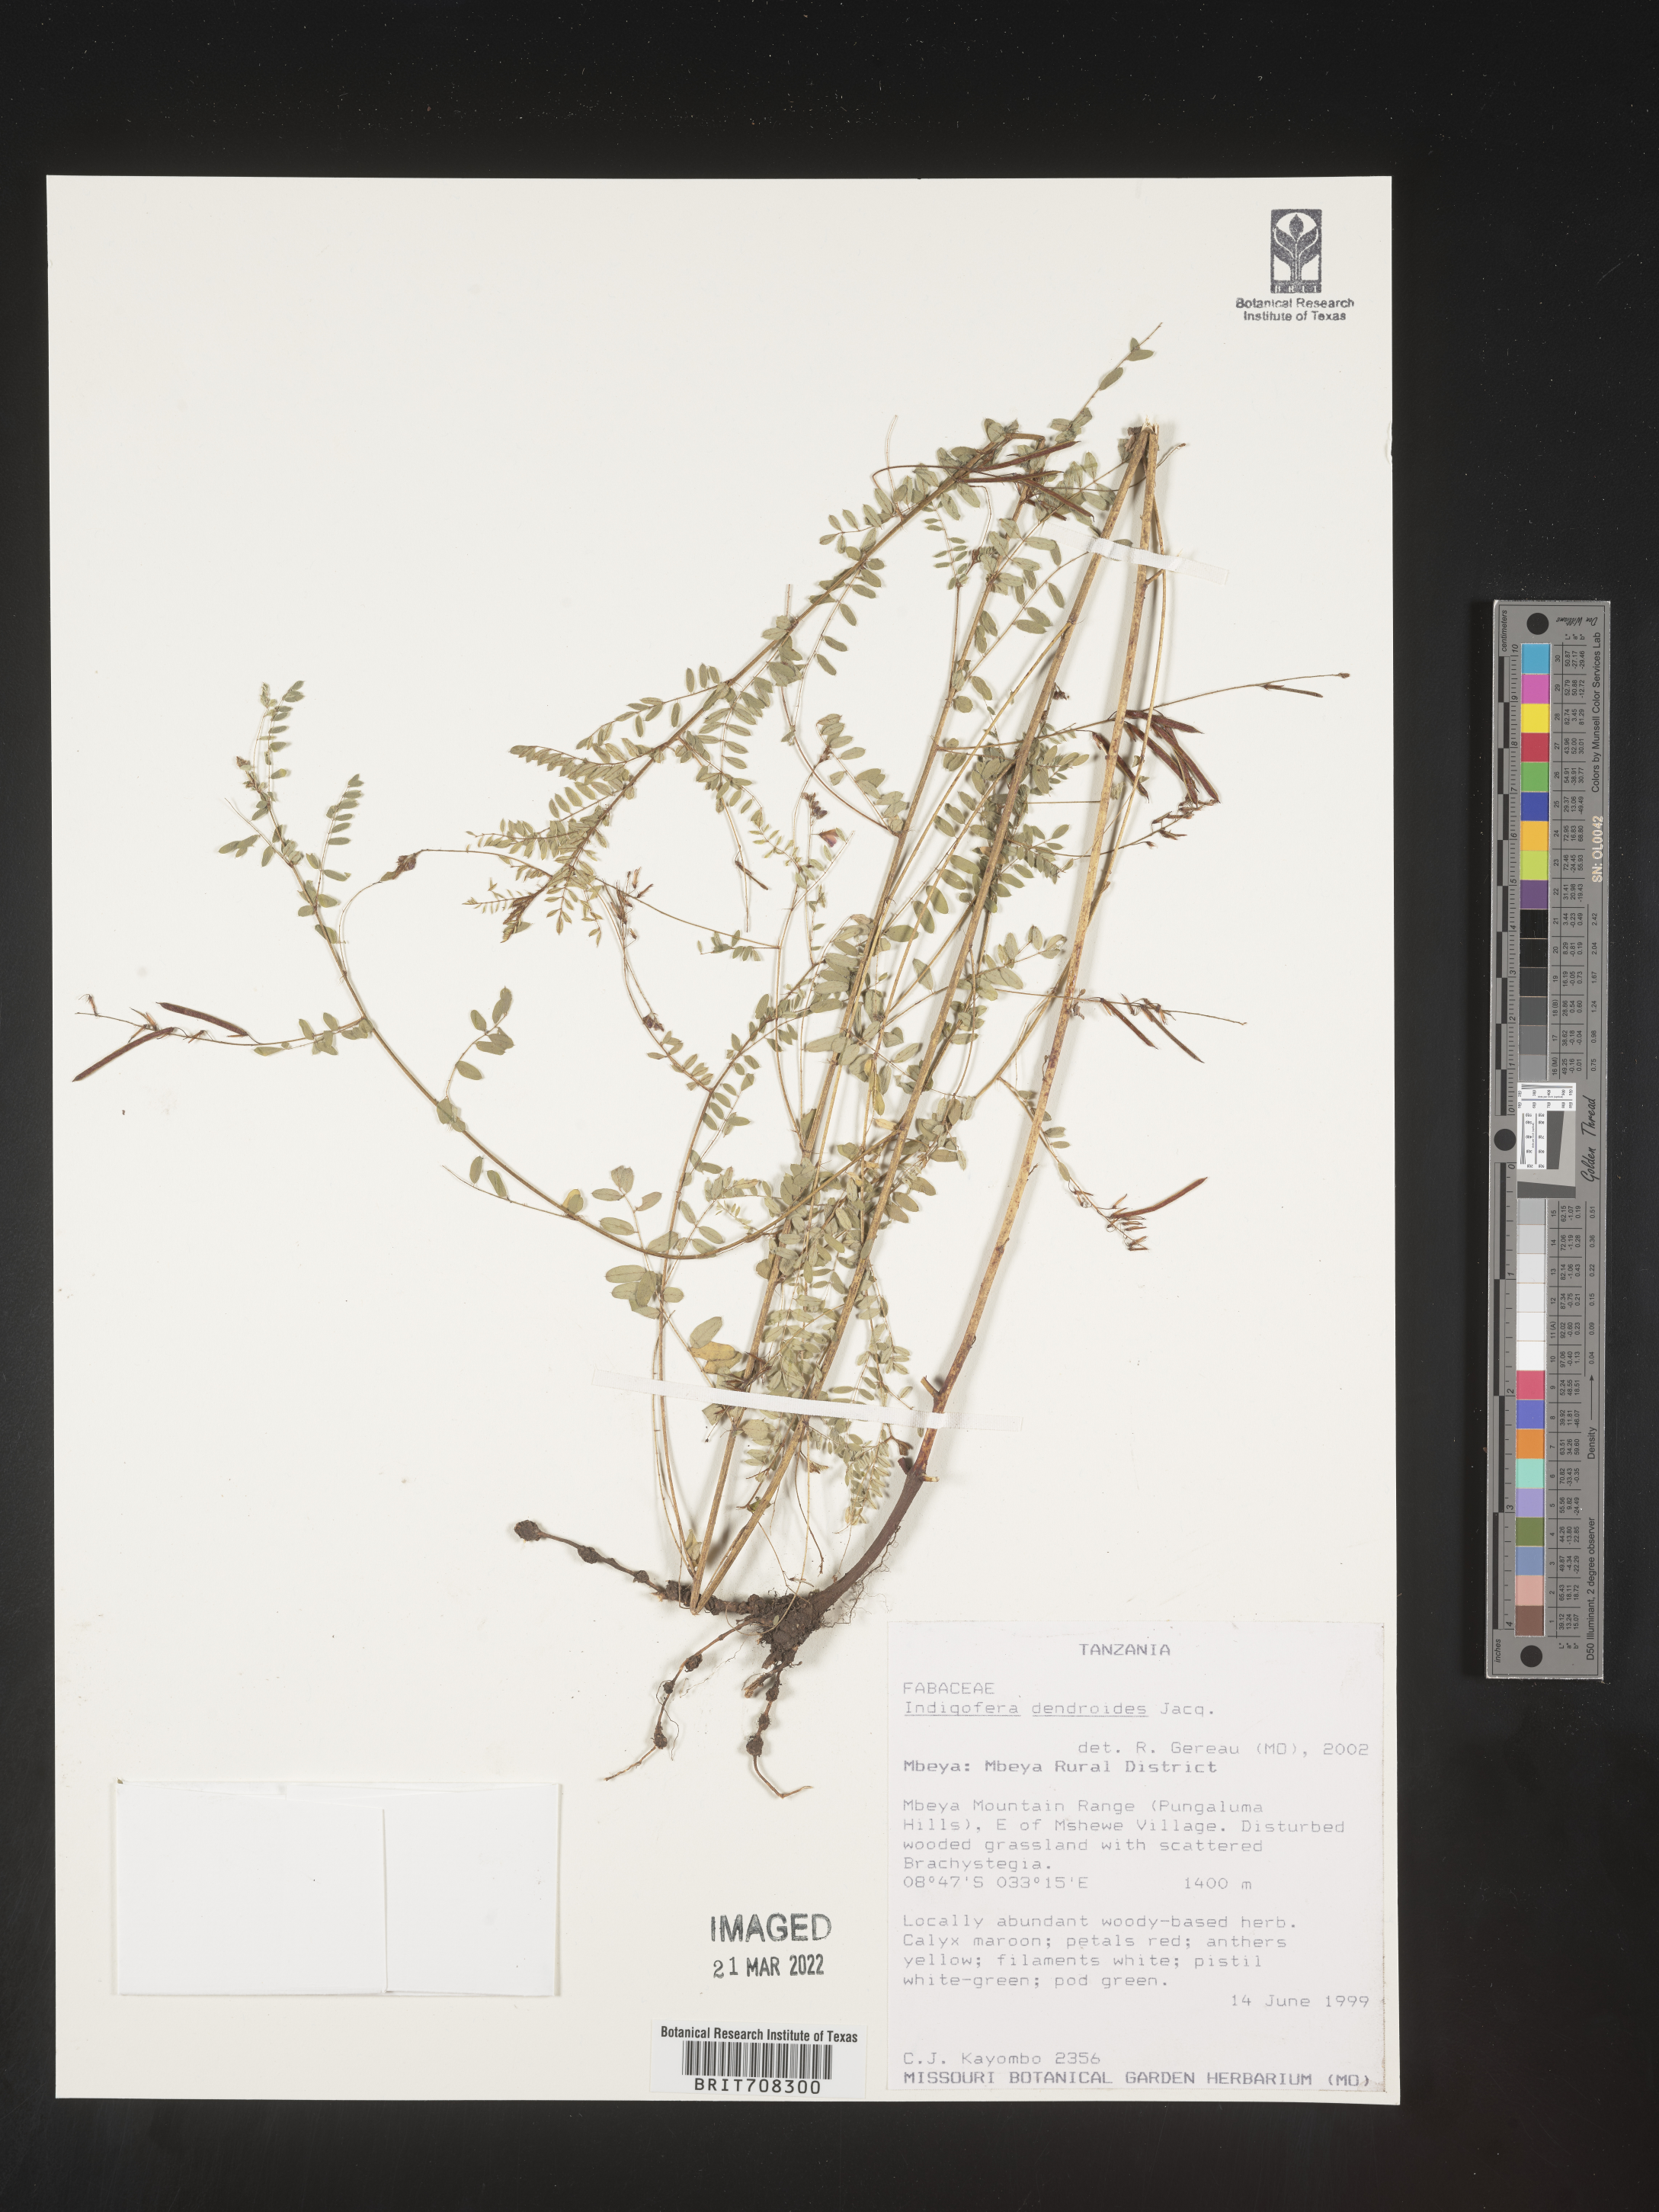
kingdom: Plantae
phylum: Tracheophyta
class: Magnoliopsida
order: Fabales
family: Fabaceae
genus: Indigofera
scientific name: Indigofera
